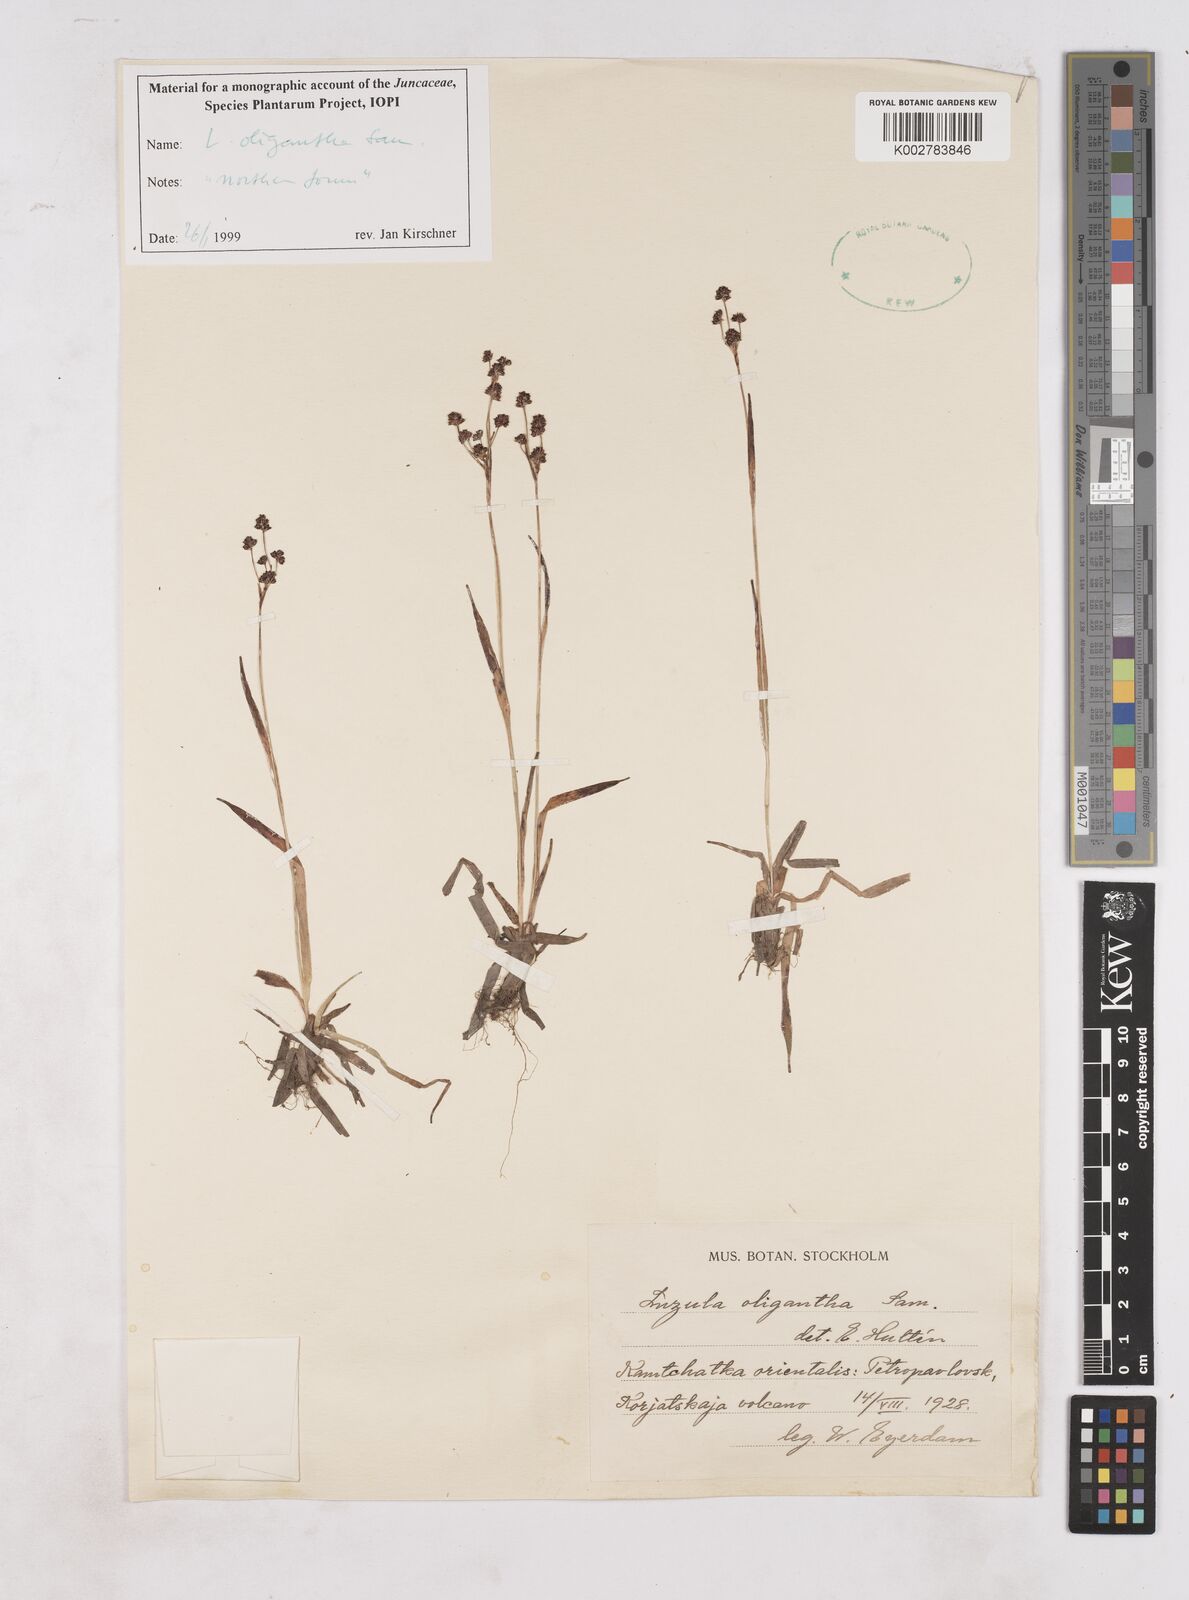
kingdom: Plantae
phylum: Tracheophyta
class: Liliopsida
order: Poales
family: Juncaceae
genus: Luzula
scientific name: Luzula oligantha
